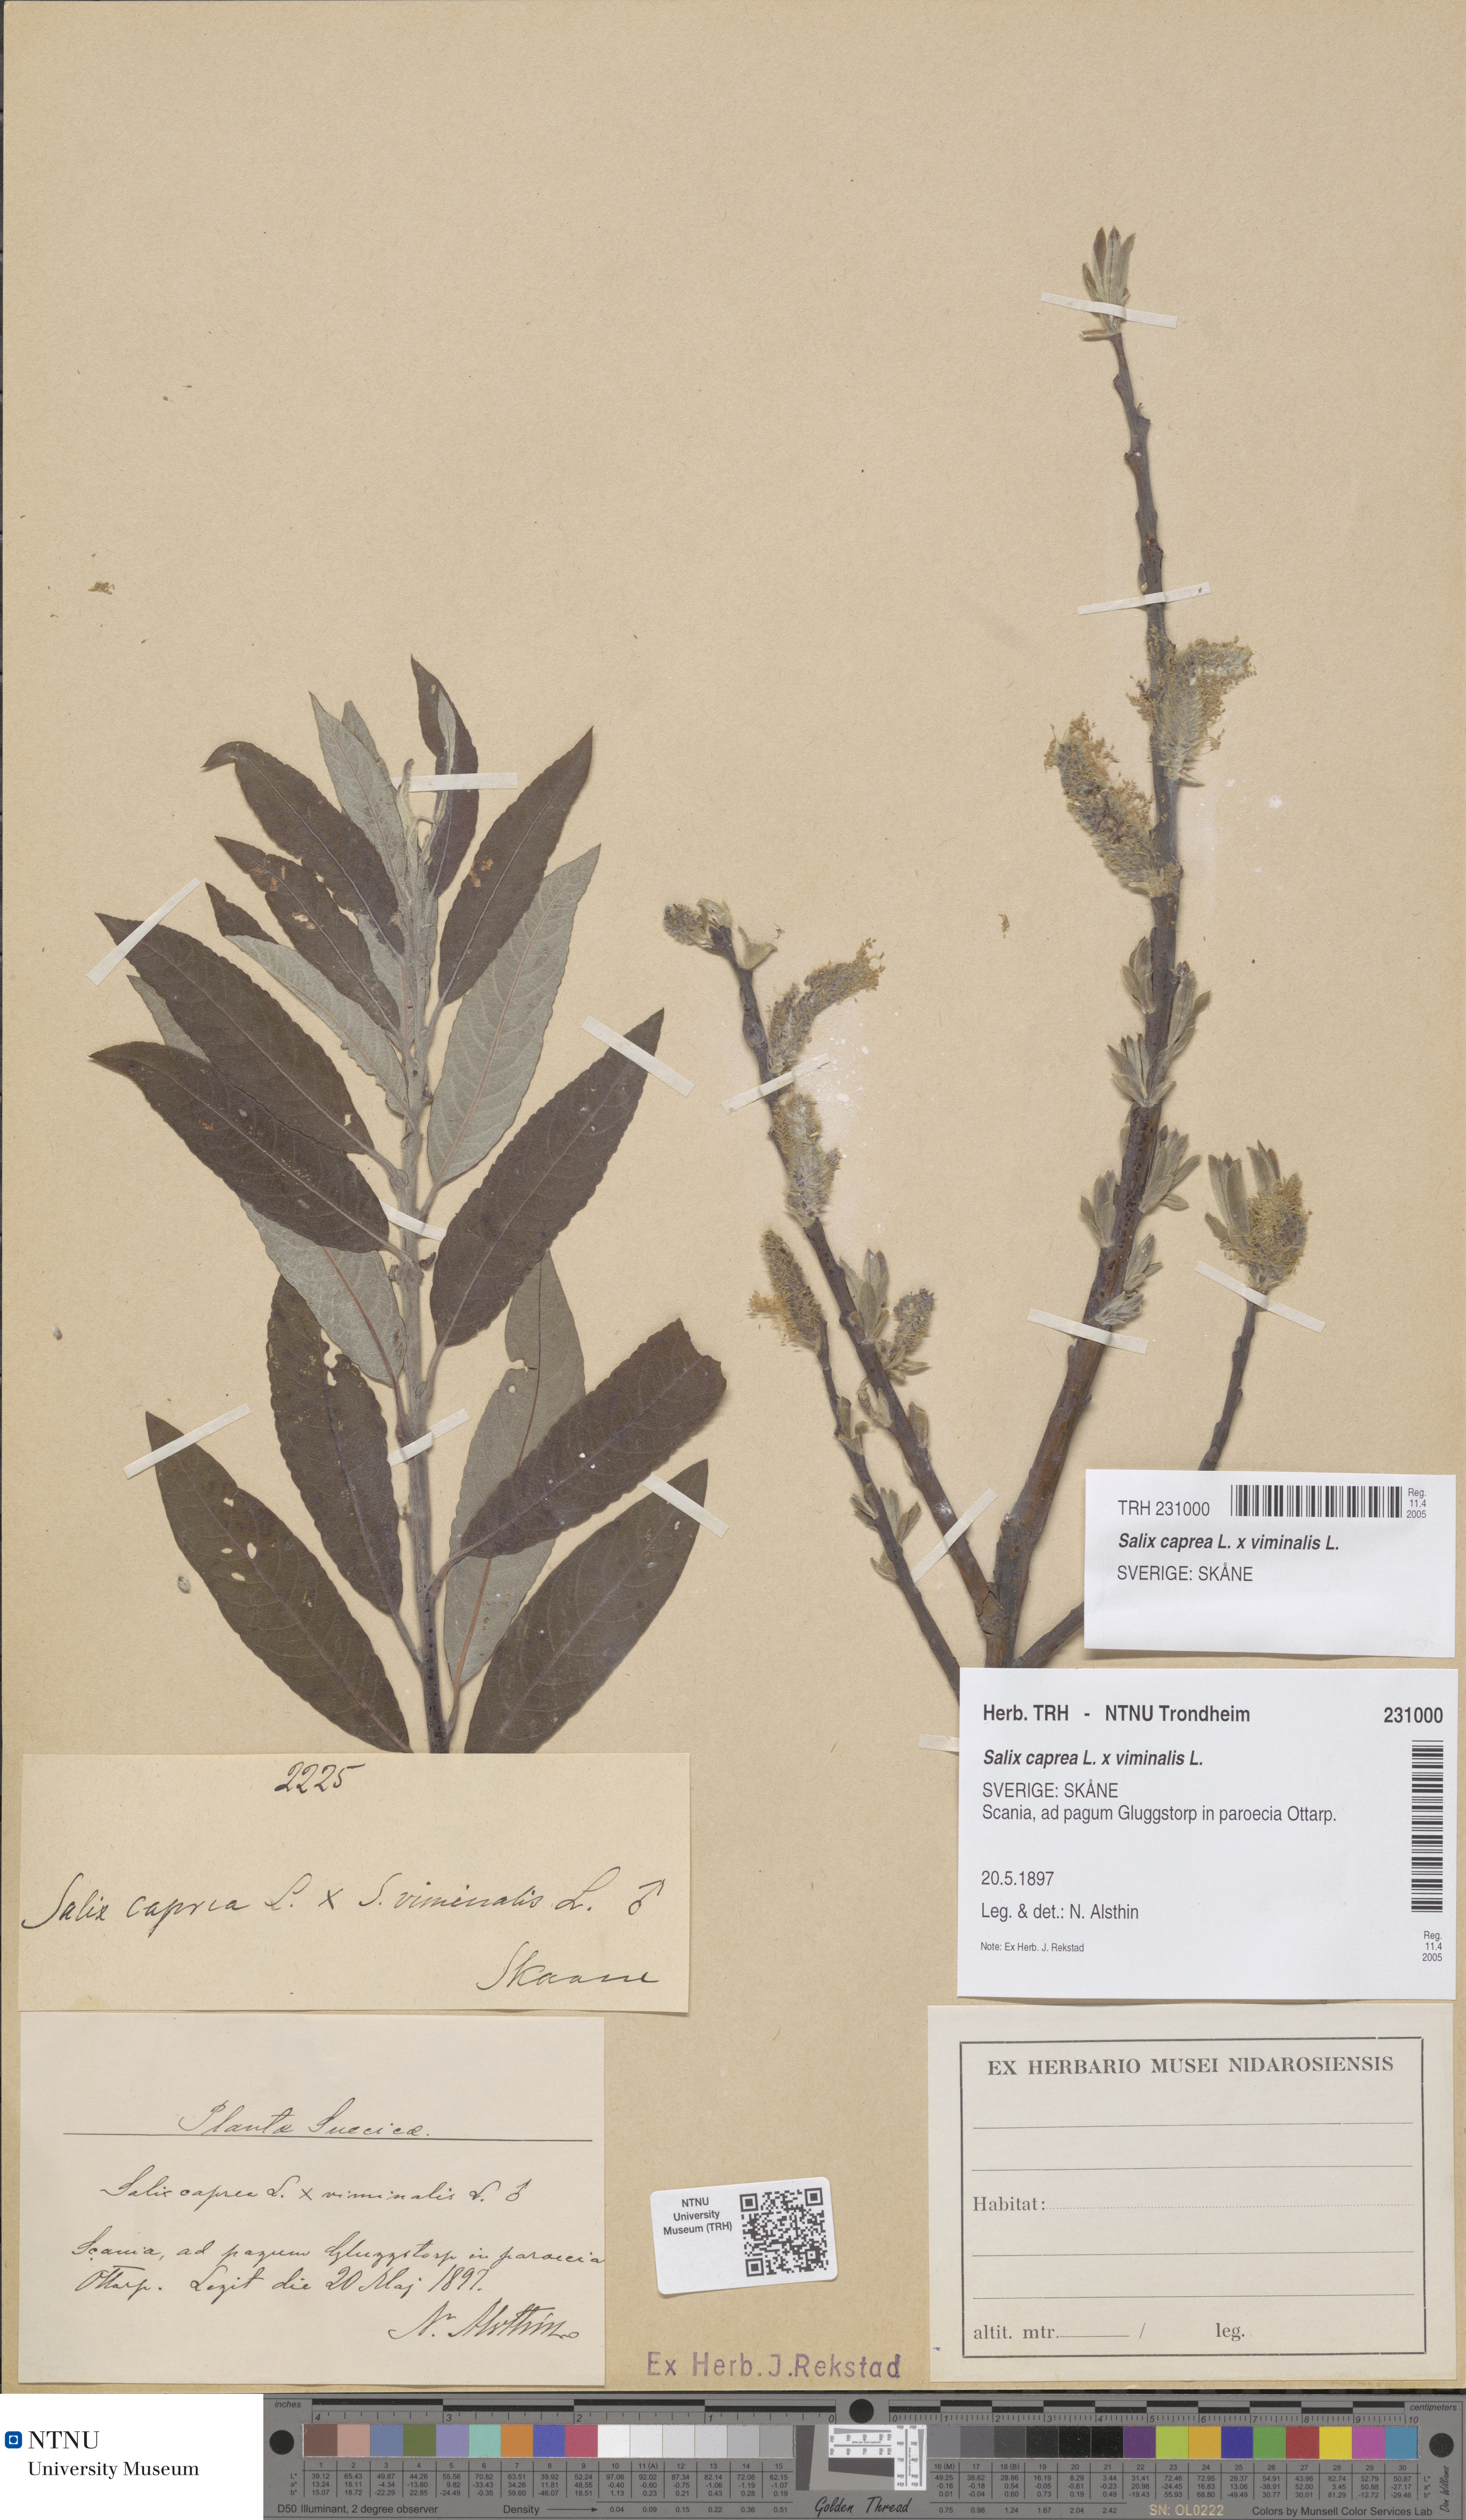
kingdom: Plantae
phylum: Tracheophyta
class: Magnoliopsida
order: Malpighiales
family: Salicaceae
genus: Salix
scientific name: Salix smithiana
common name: Silky-leaved osier
